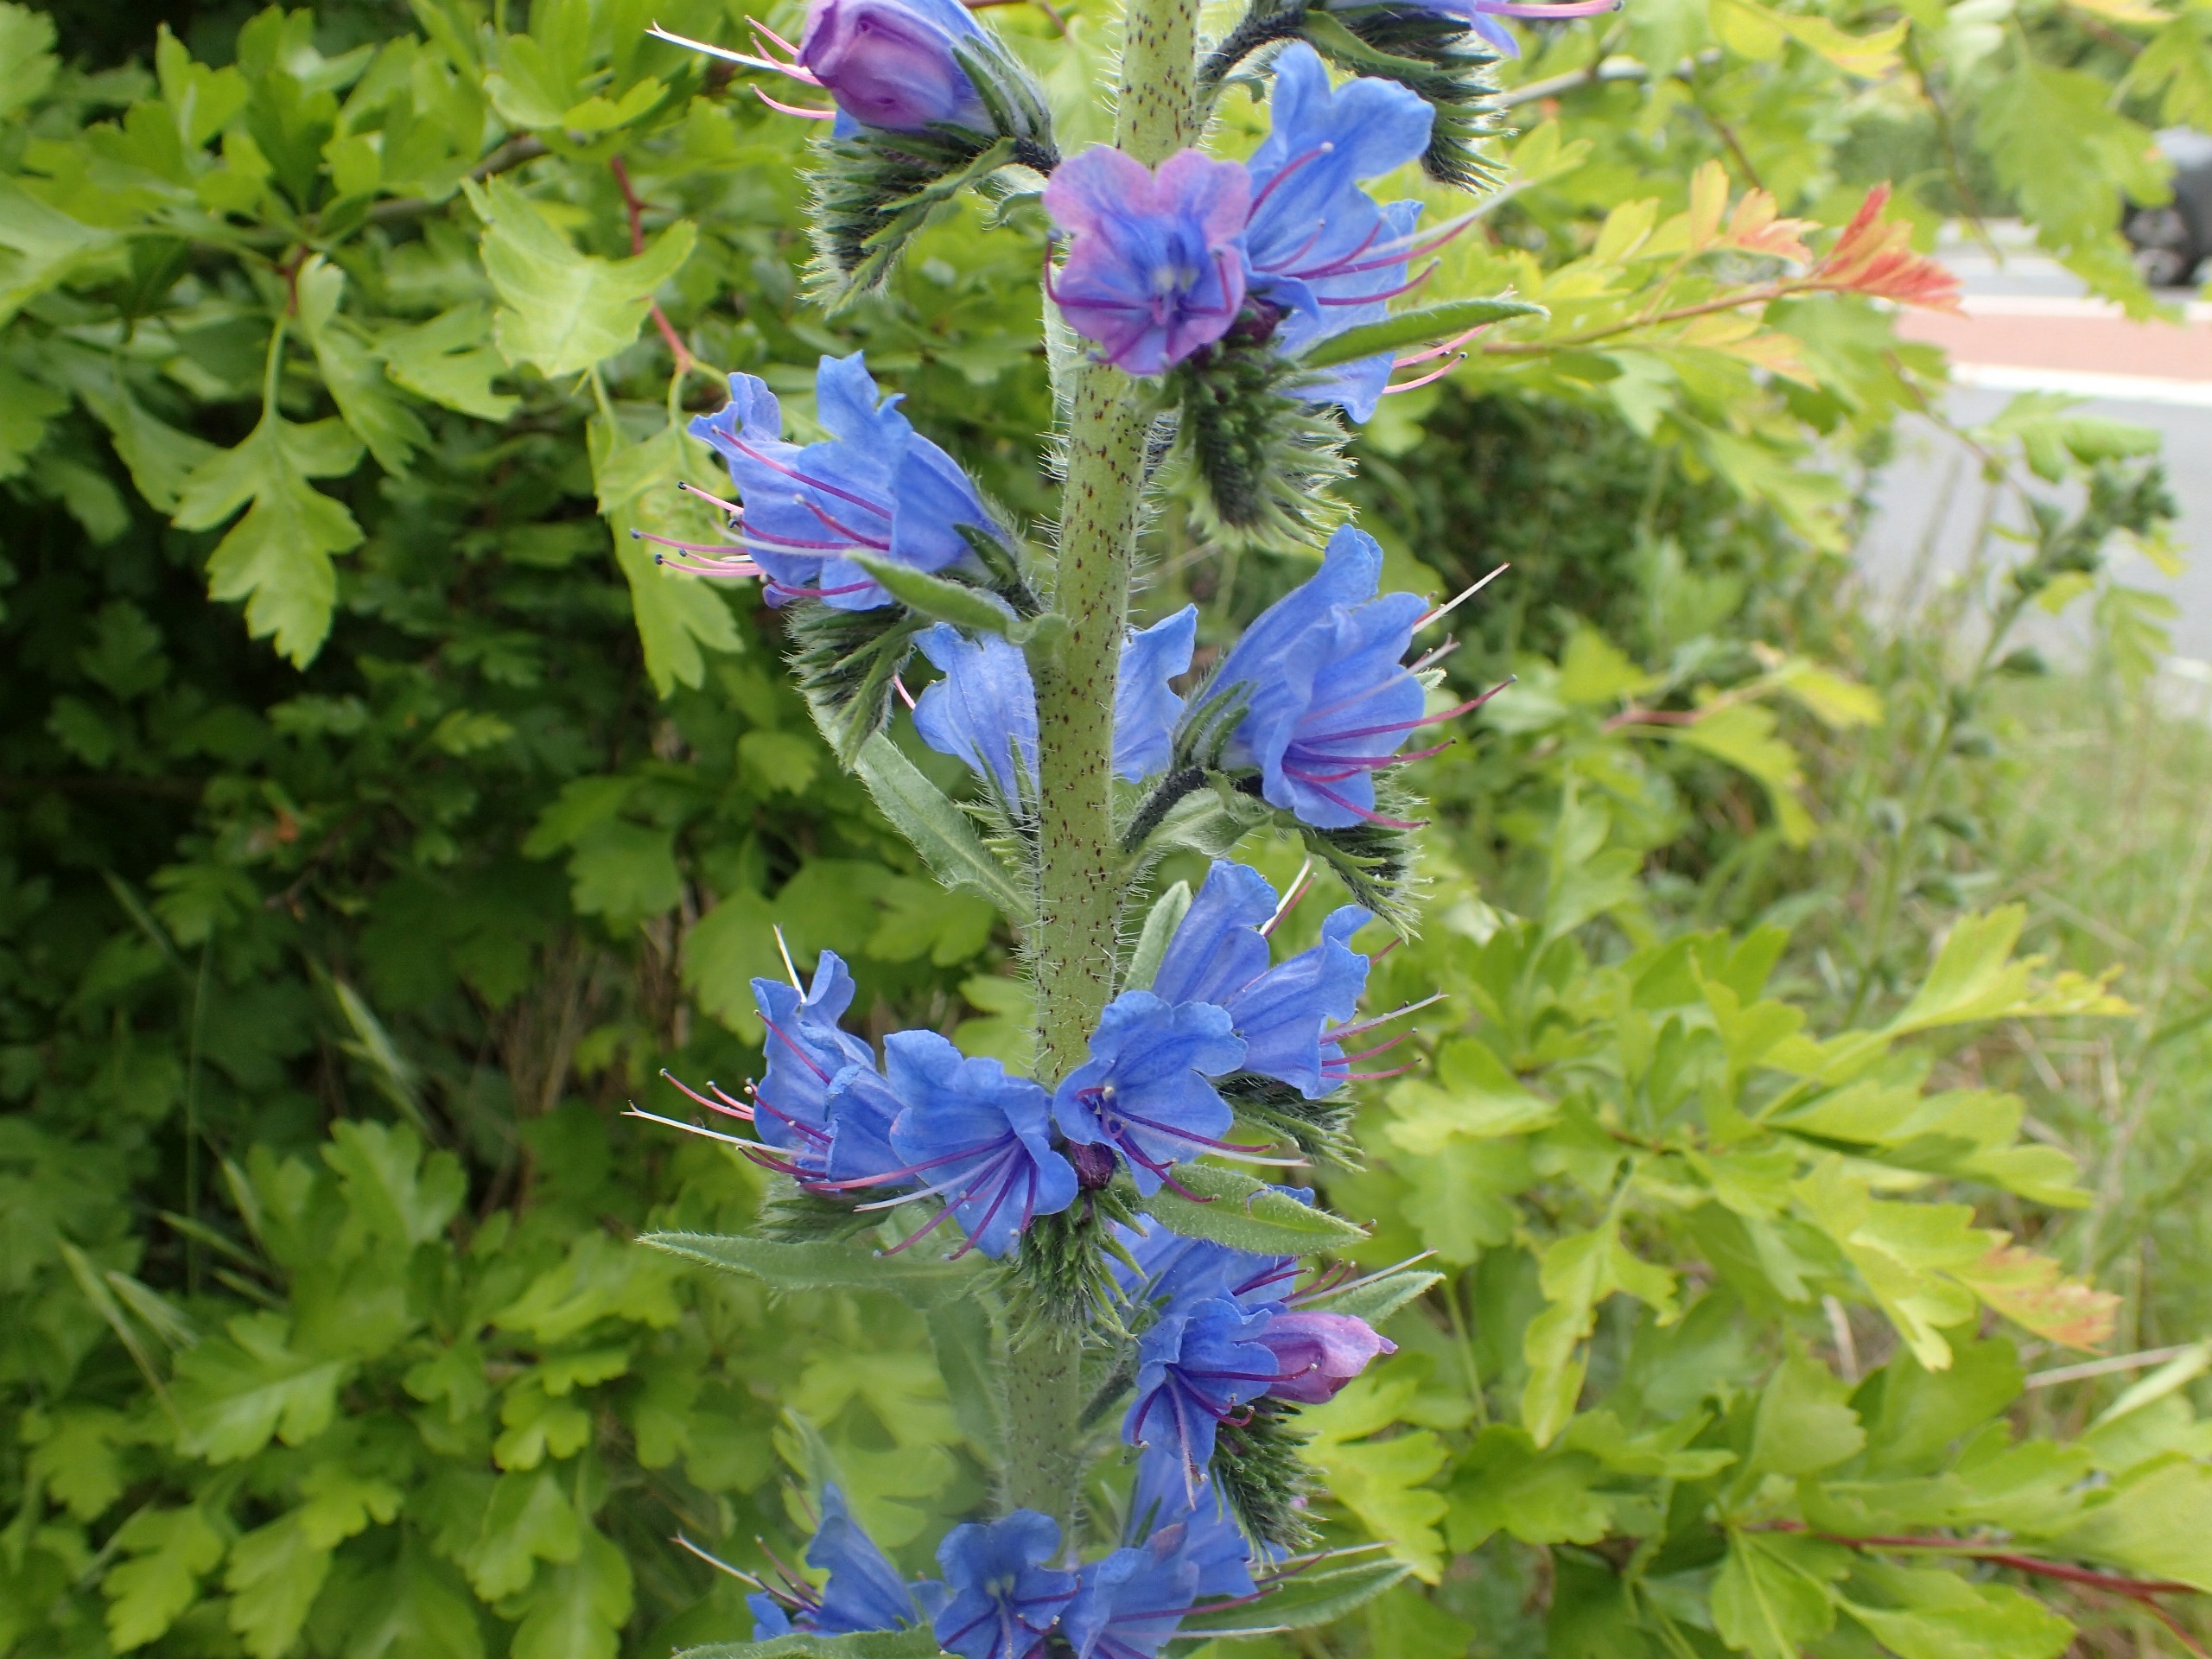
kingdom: Plantae
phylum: Tracheophyta
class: Magnoliopsida
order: Boraginales
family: Boraginaceae
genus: Echium
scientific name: Echium vulgare
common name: Slangehoved
